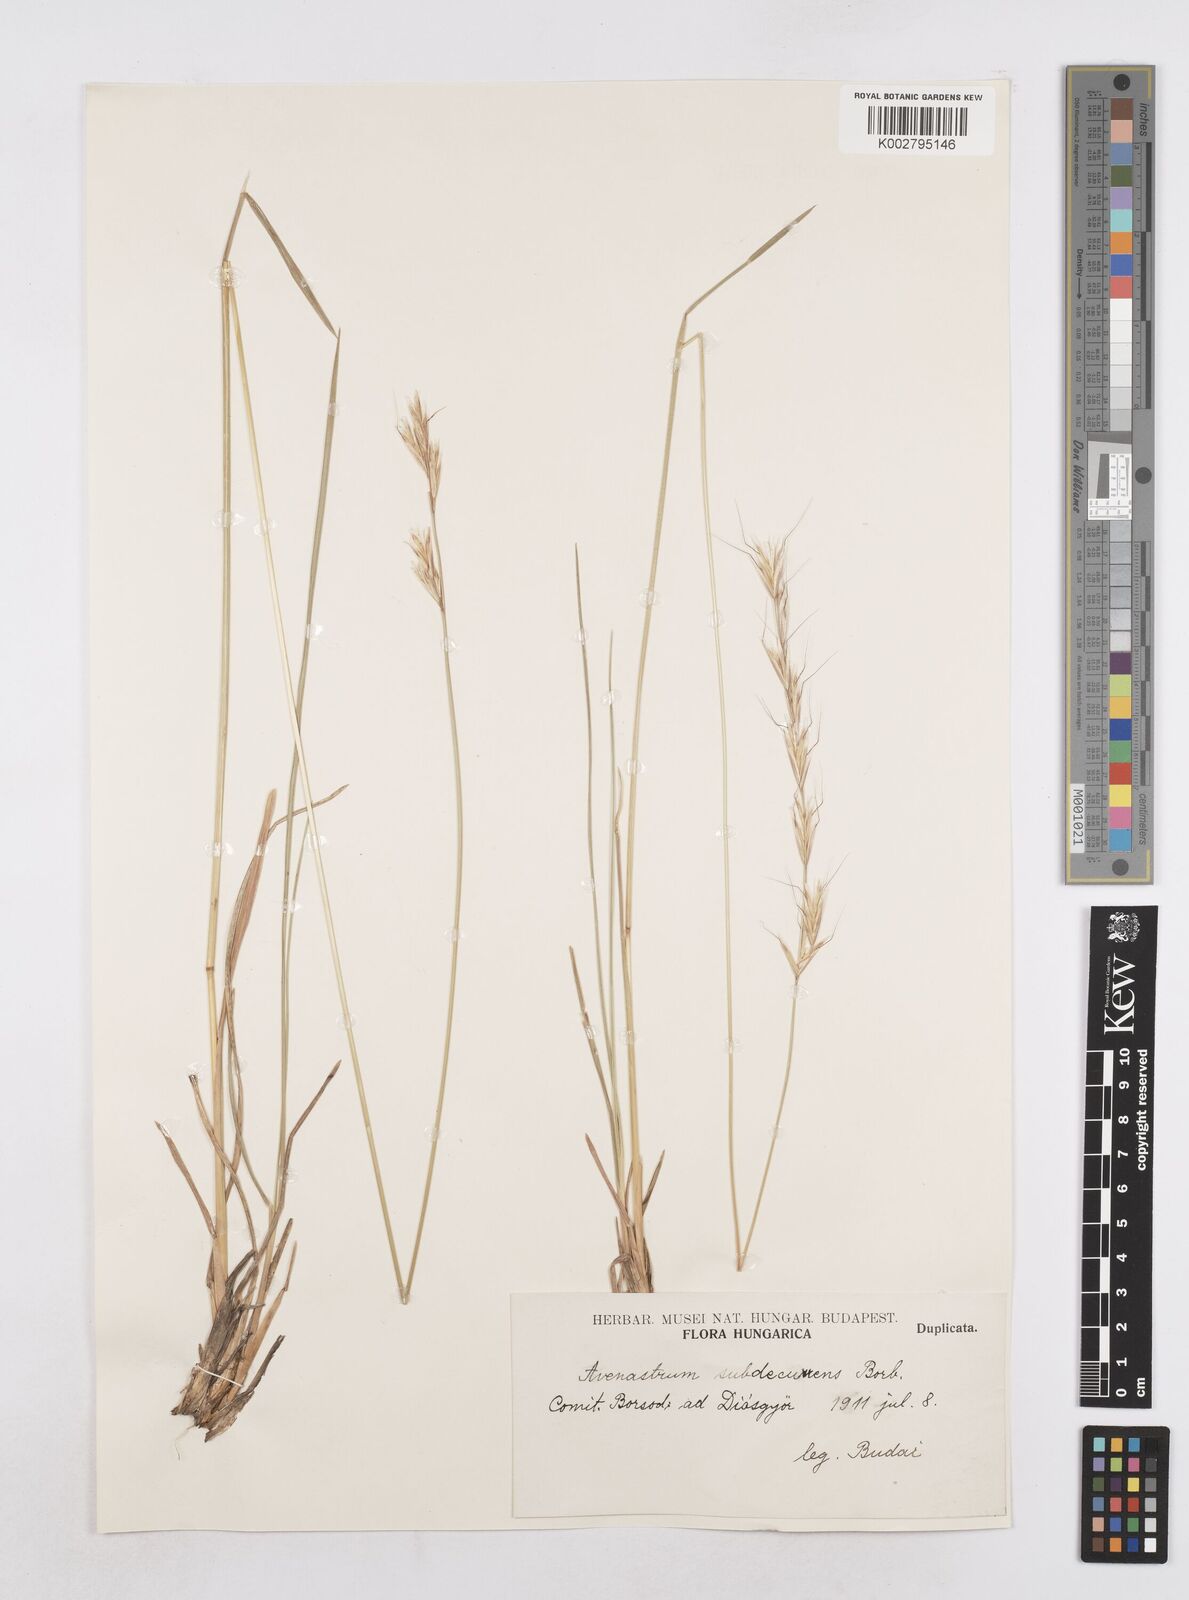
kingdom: Plantae
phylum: Tracheophyta
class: Liliopsida
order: Poales
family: Poaceae
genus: Helictochloa
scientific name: Helictochloa pratensis
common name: Meadow oat grass
